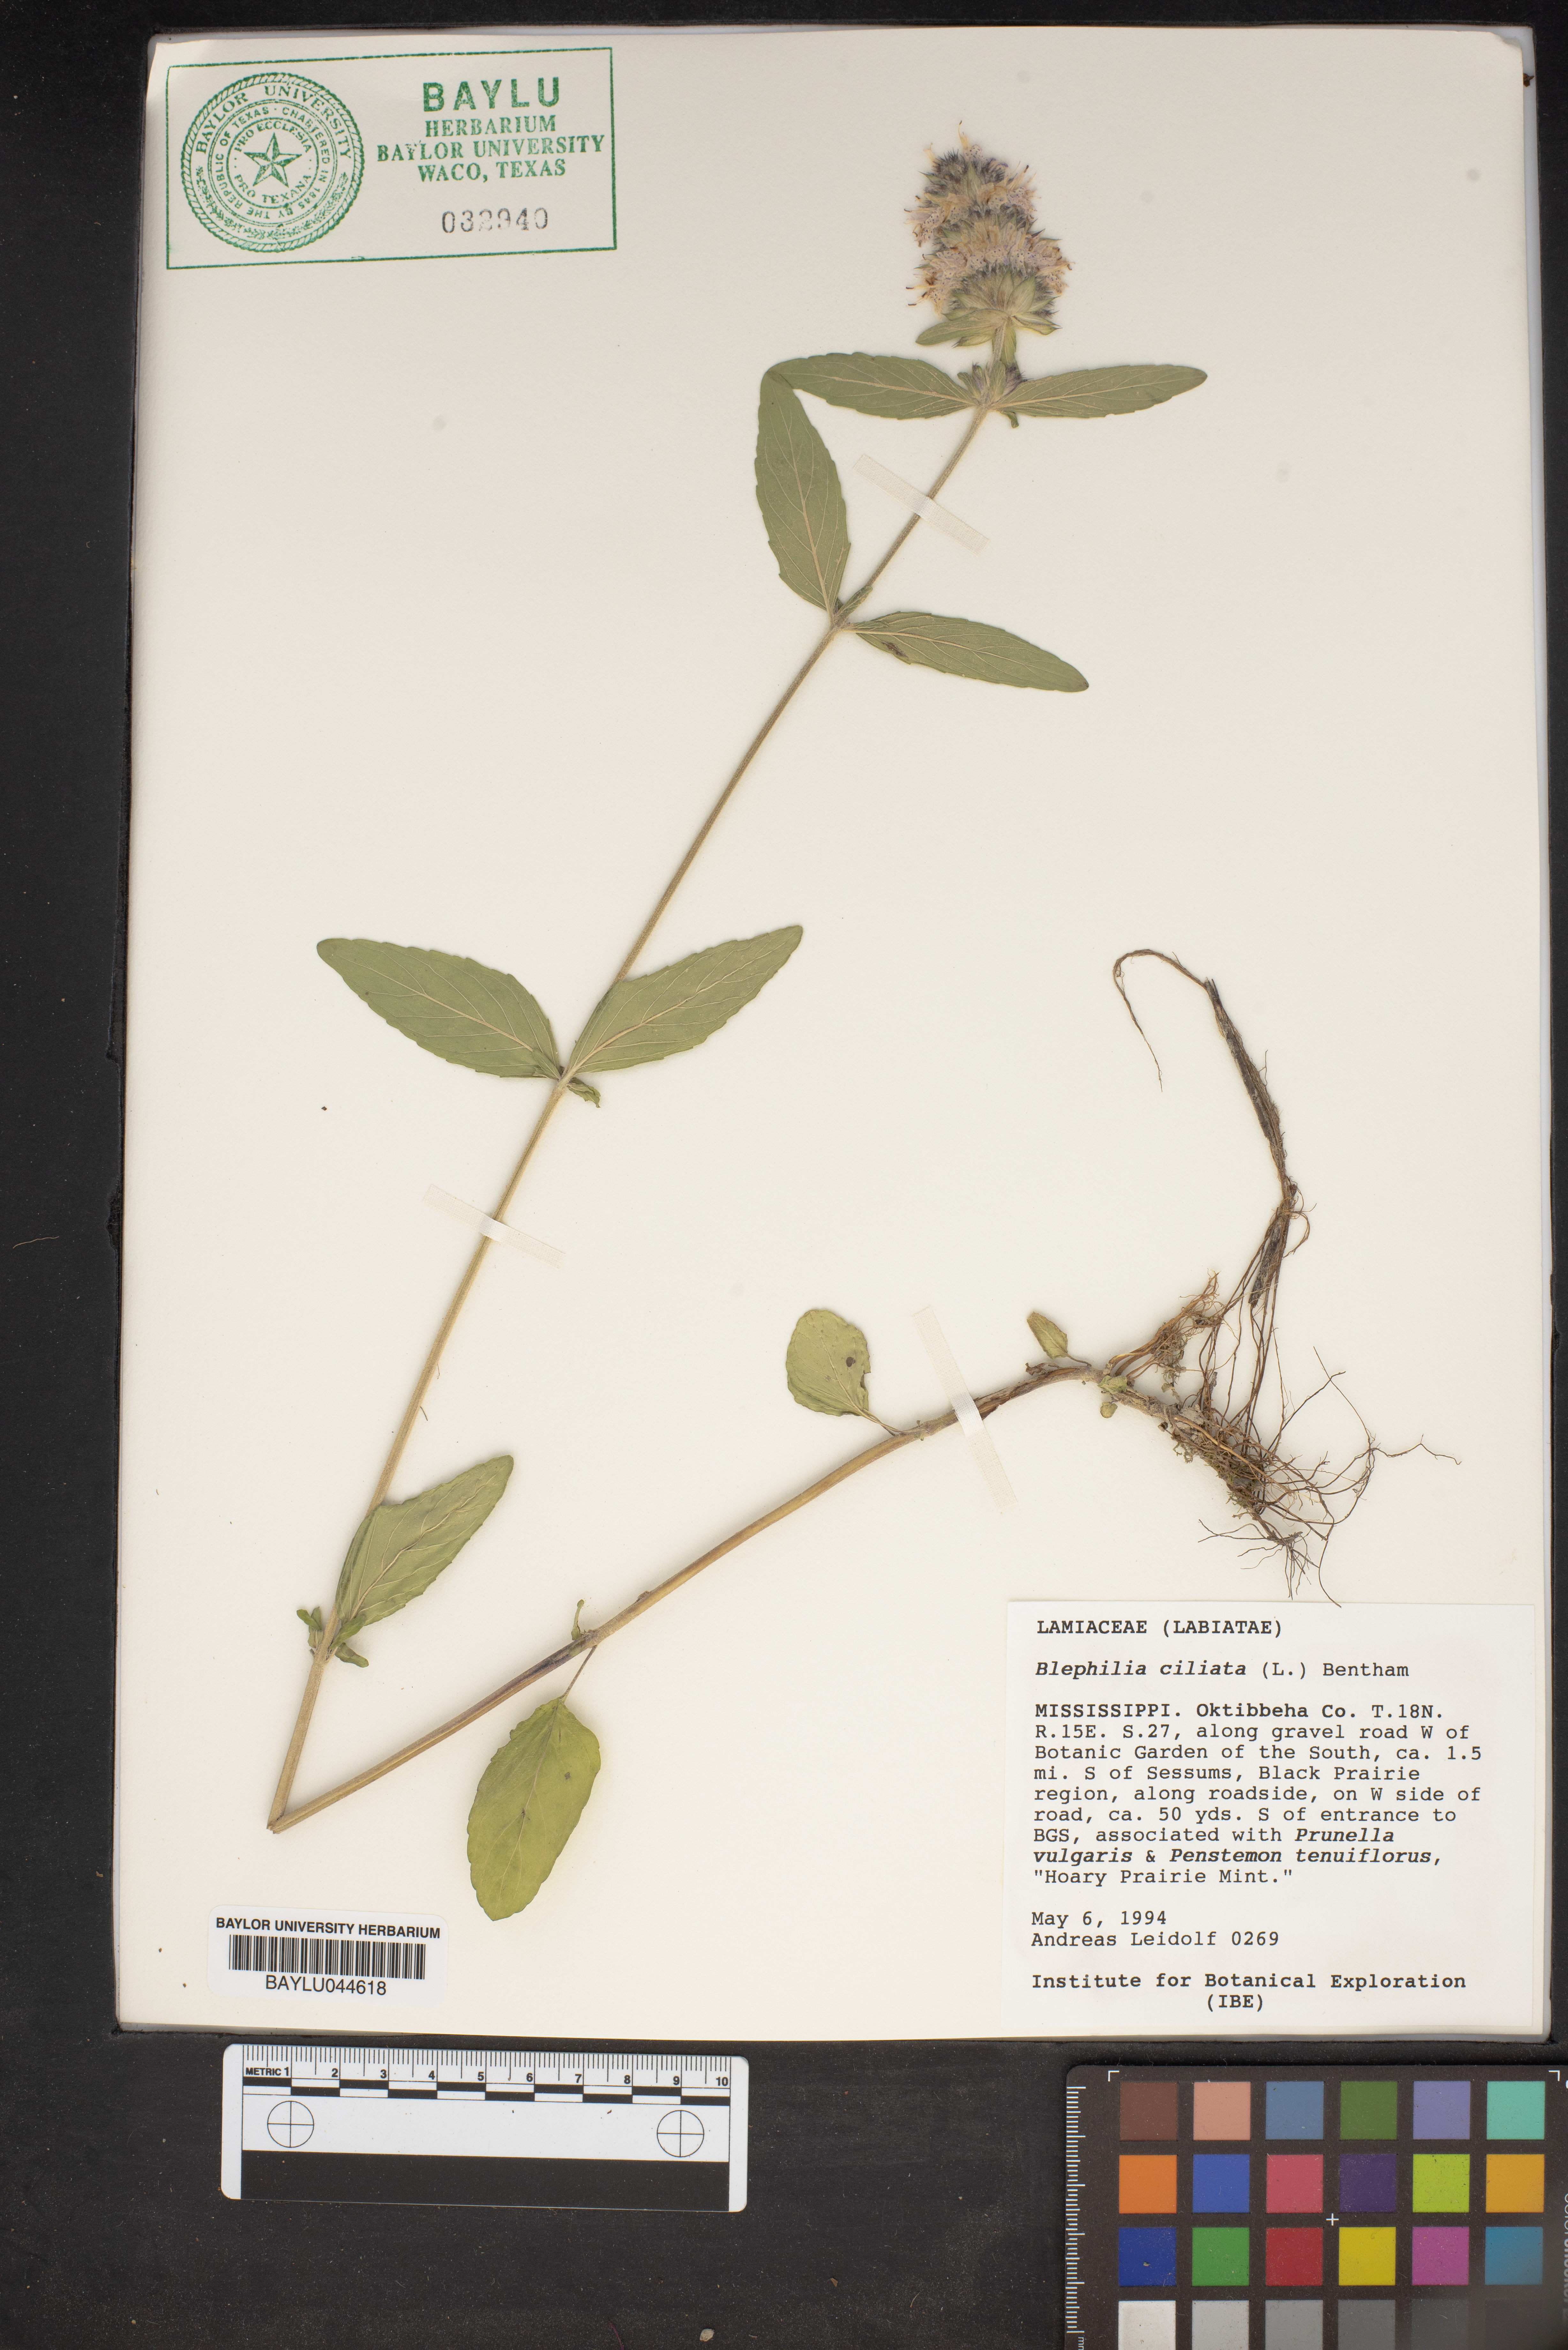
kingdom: Plantae
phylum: Tracheophyta
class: Magnoliopsida
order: Lamiales
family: Lamiaceae
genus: Blephilia
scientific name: Blephilia ciliata
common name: Downy blephilia
